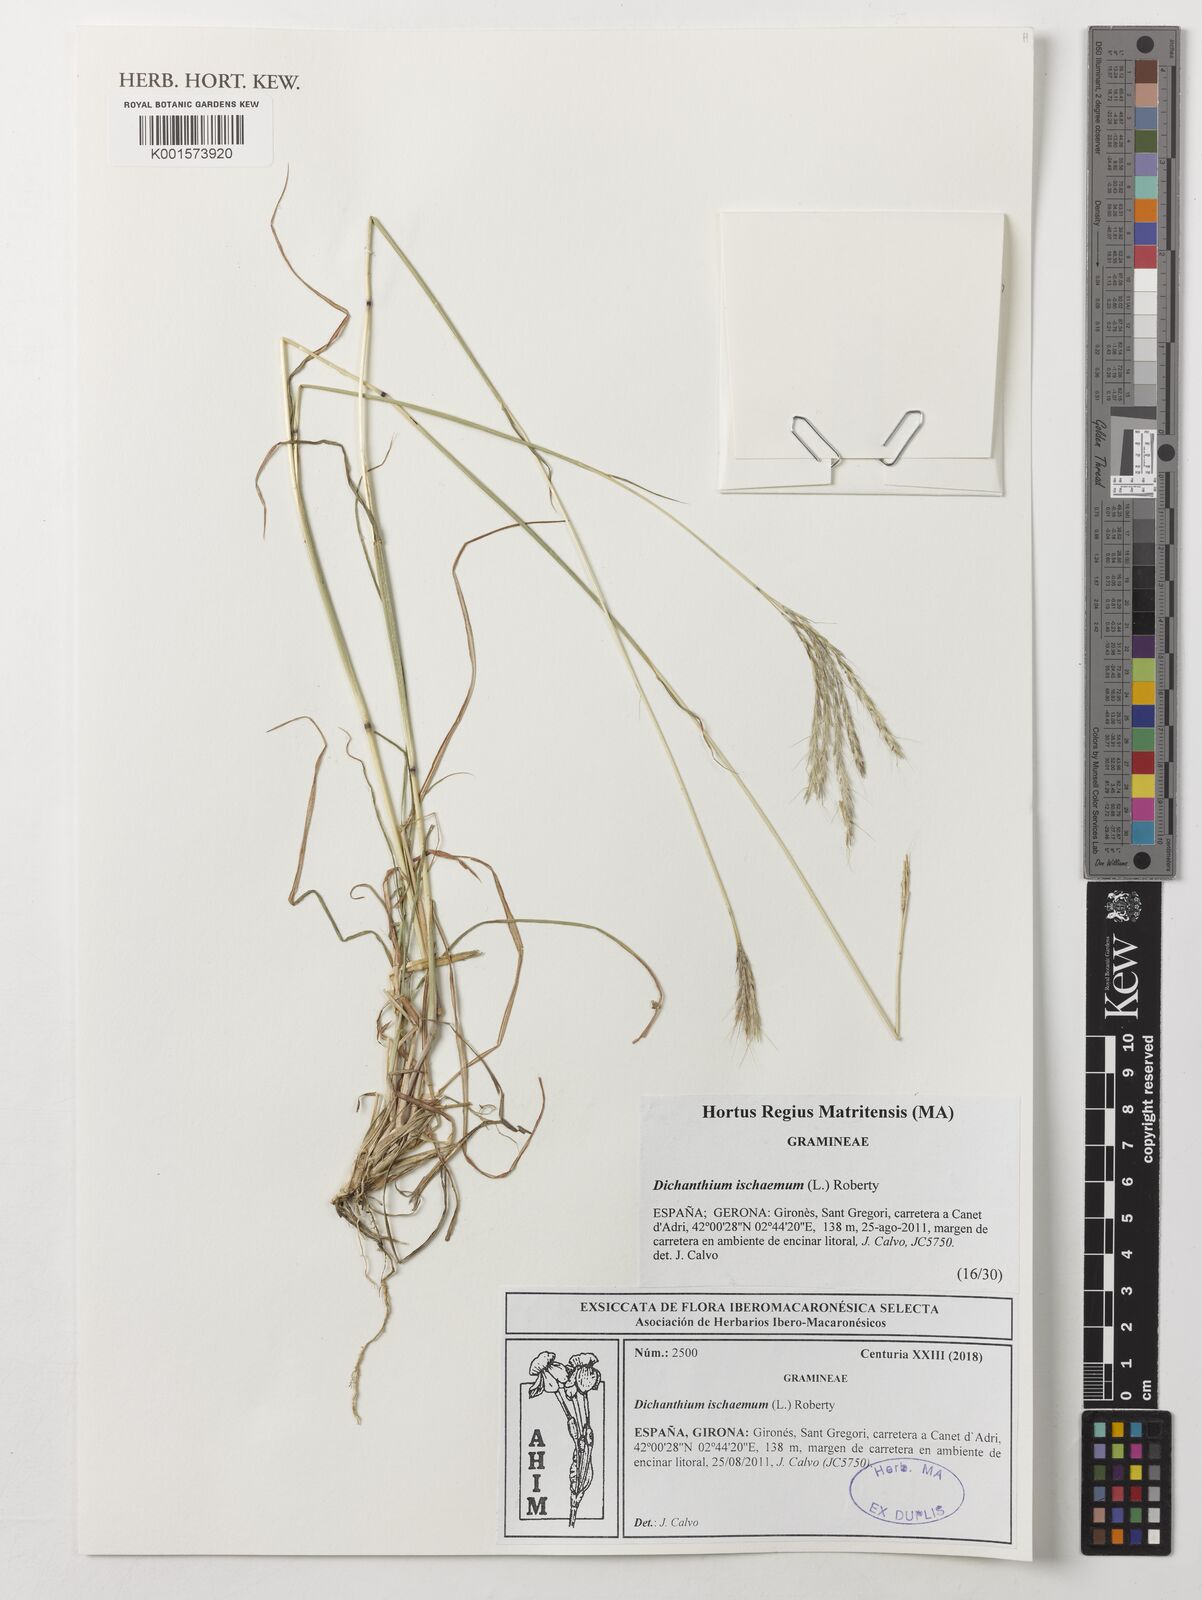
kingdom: Plantae
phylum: Tracheophyta
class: Liliopsida
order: Poales
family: Poaceae
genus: Bothriochloa
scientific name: Bothriochloa ischaemum
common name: Yellow bluestem
